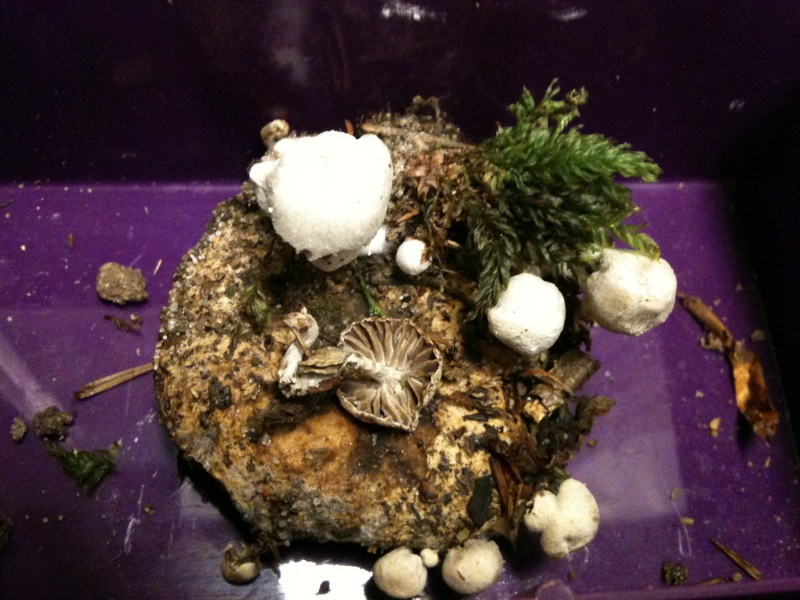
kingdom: Fungi
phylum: Basidiomycota
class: Agaricomycetes
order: Agaricales
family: Lyophyllaceae
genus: Asterophora
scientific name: Asterophora parasitica
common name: grå snyltehat
